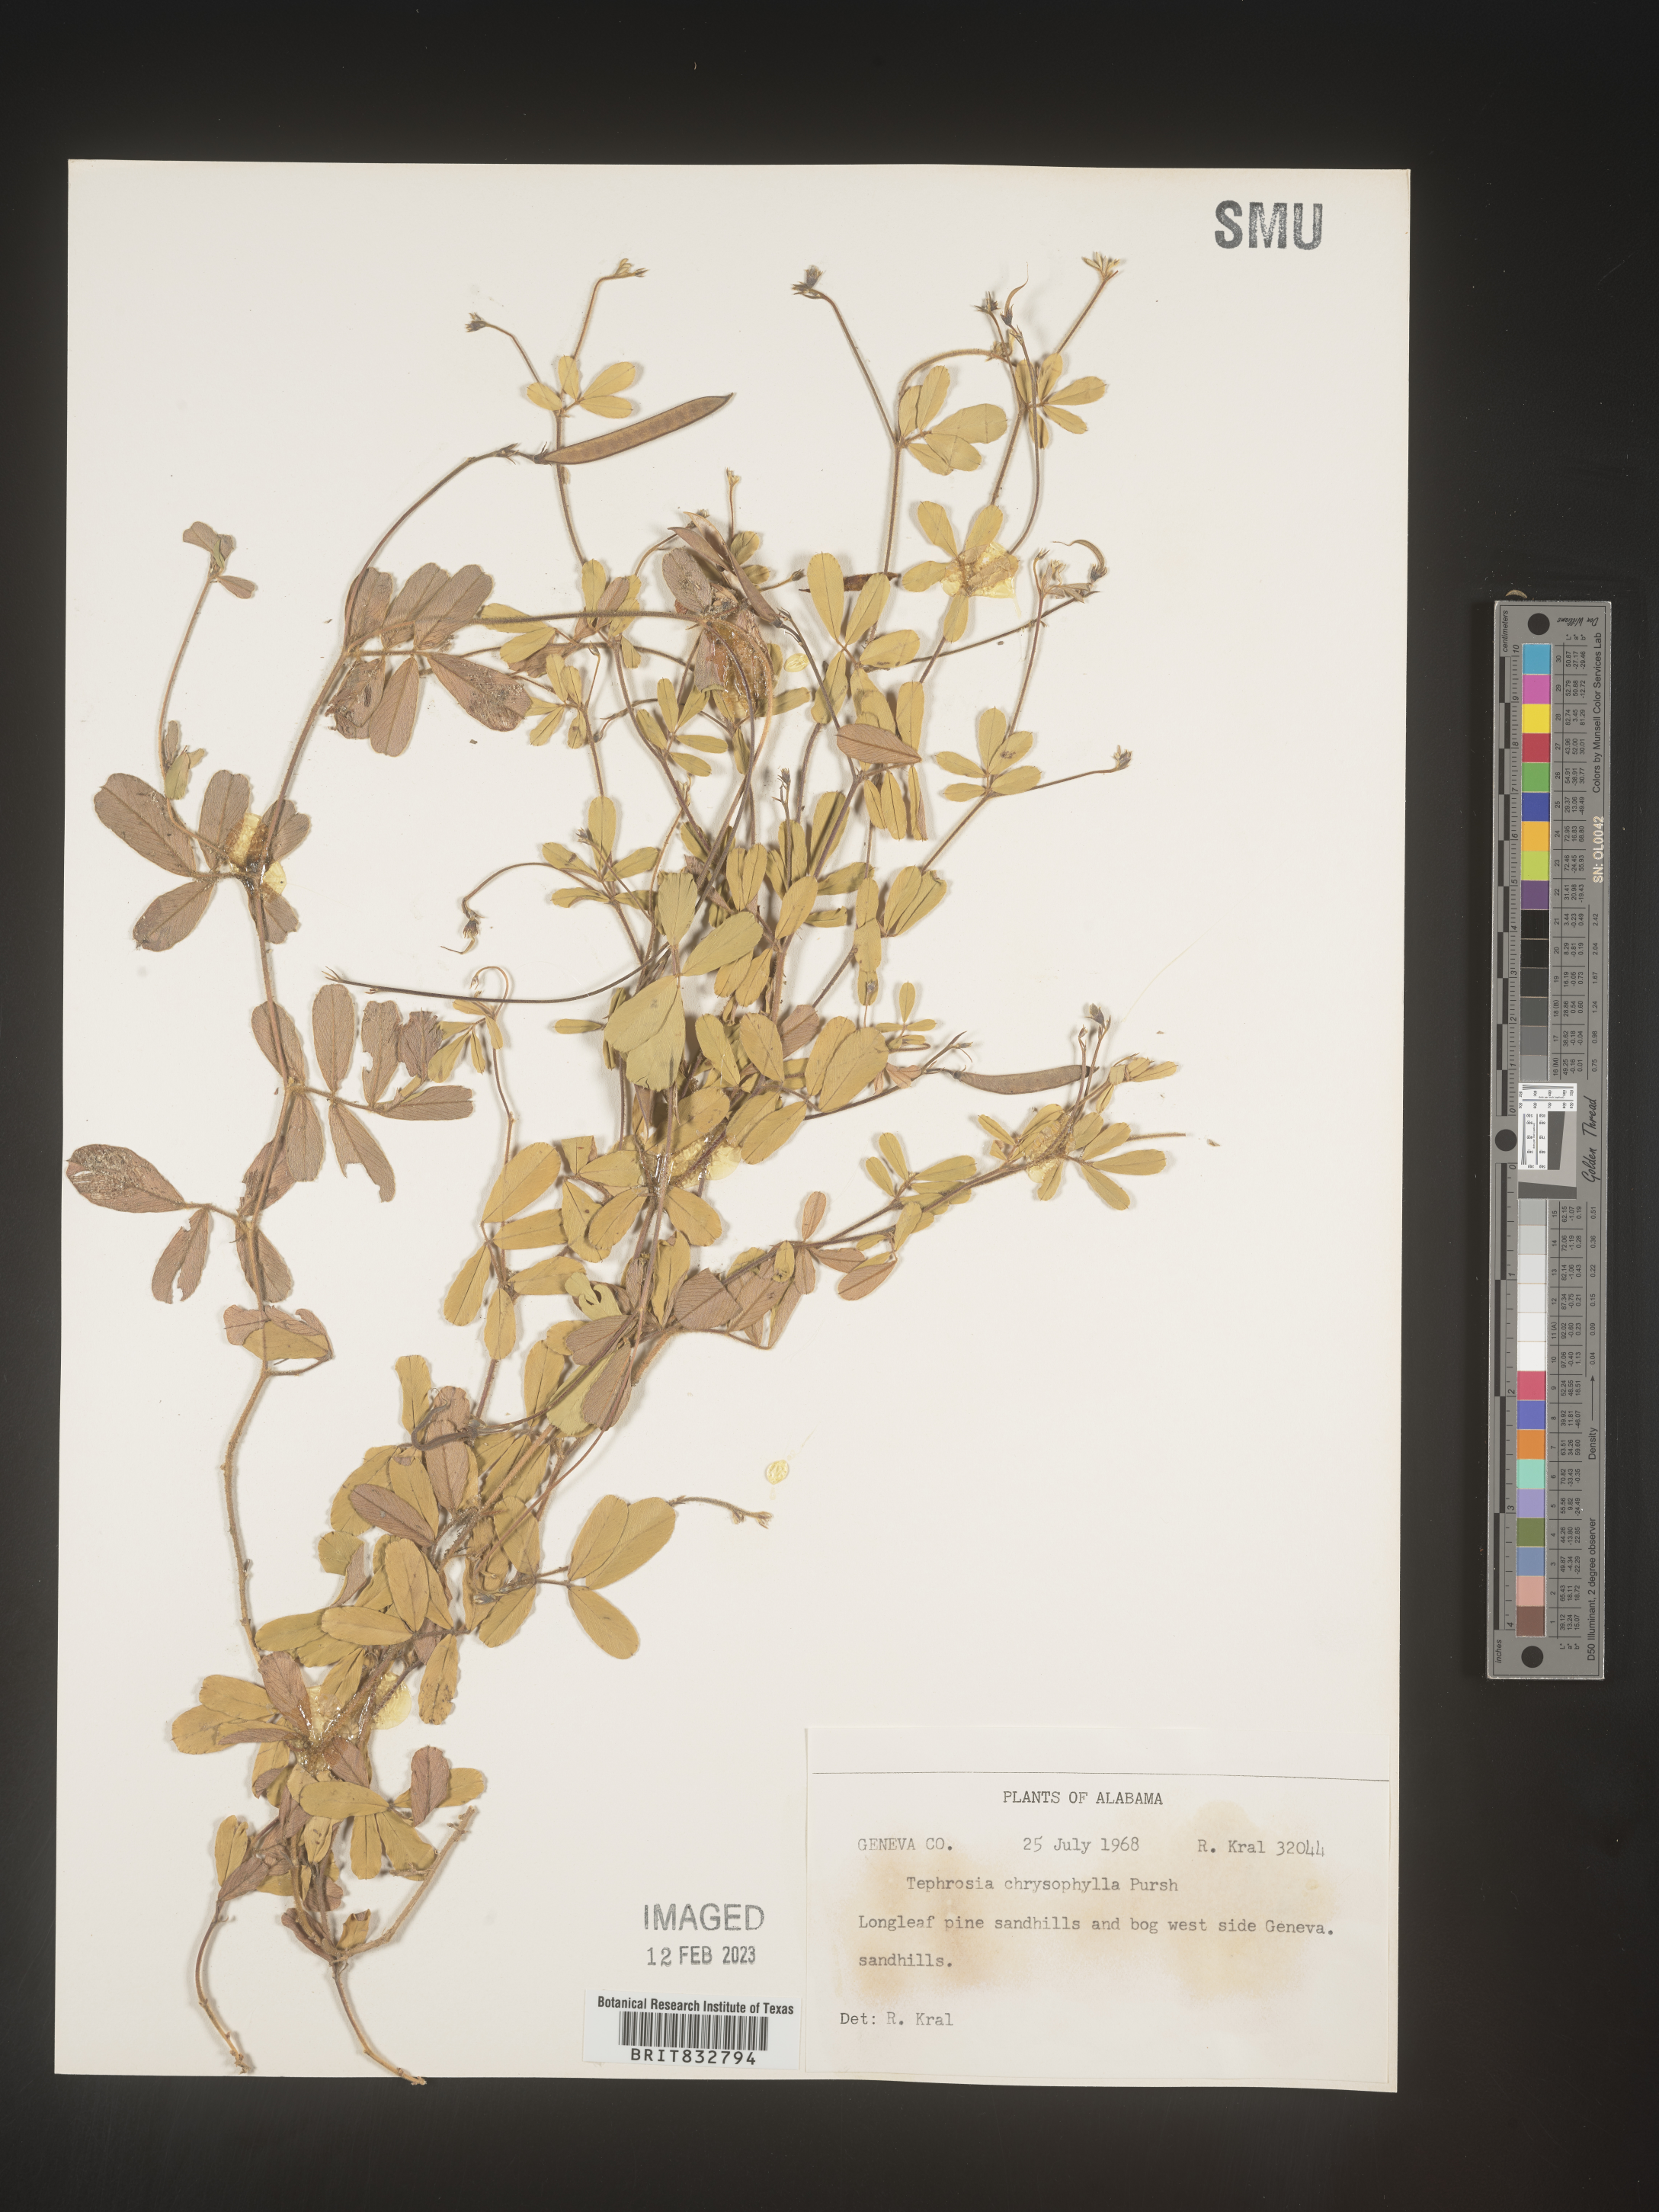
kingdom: Plantae
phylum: Tracheophyta
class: Magnoliopsida
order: Fabales
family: Fabaceae
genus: Tephrosia
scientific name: Tephrosia chrysophylla
